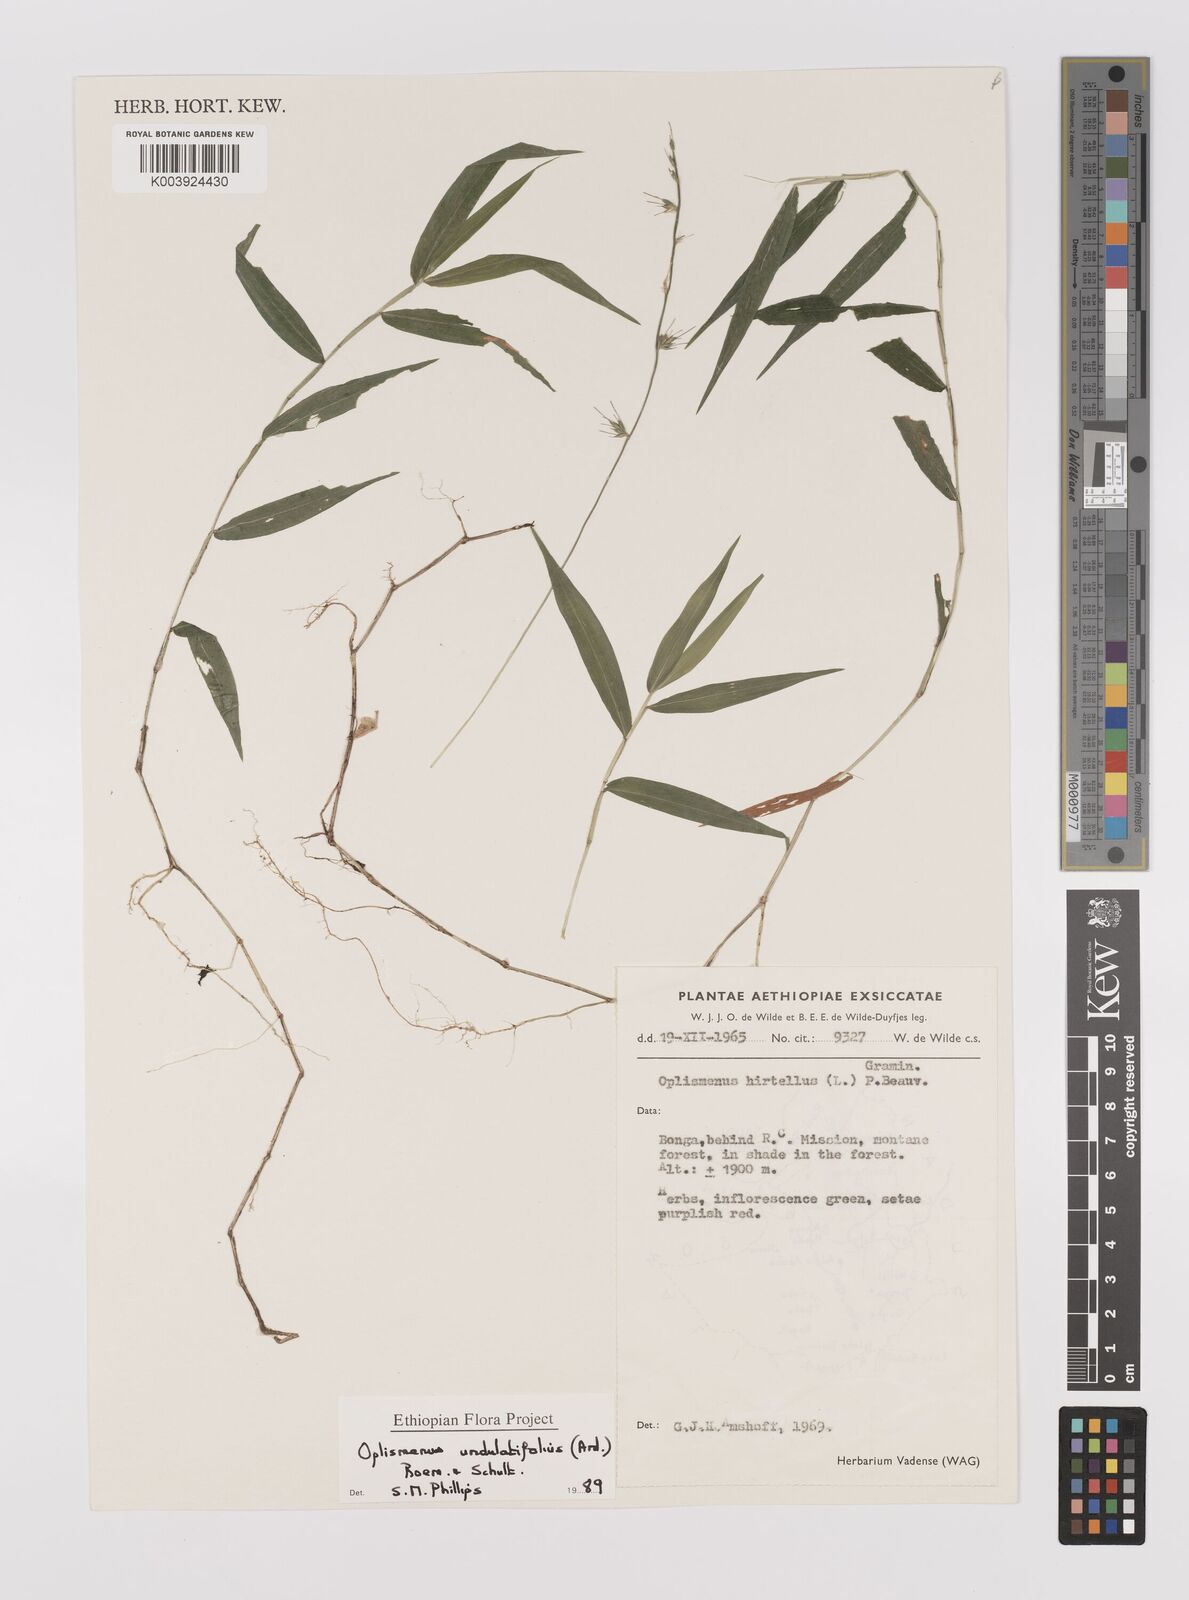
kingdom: Plantae
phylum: Tracheophyta
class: Liliopsida
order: Poales
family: Poaceae
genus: Oplismenus
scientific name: Oplismenus undulatifolius
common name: Wavyleaf basketgrass
